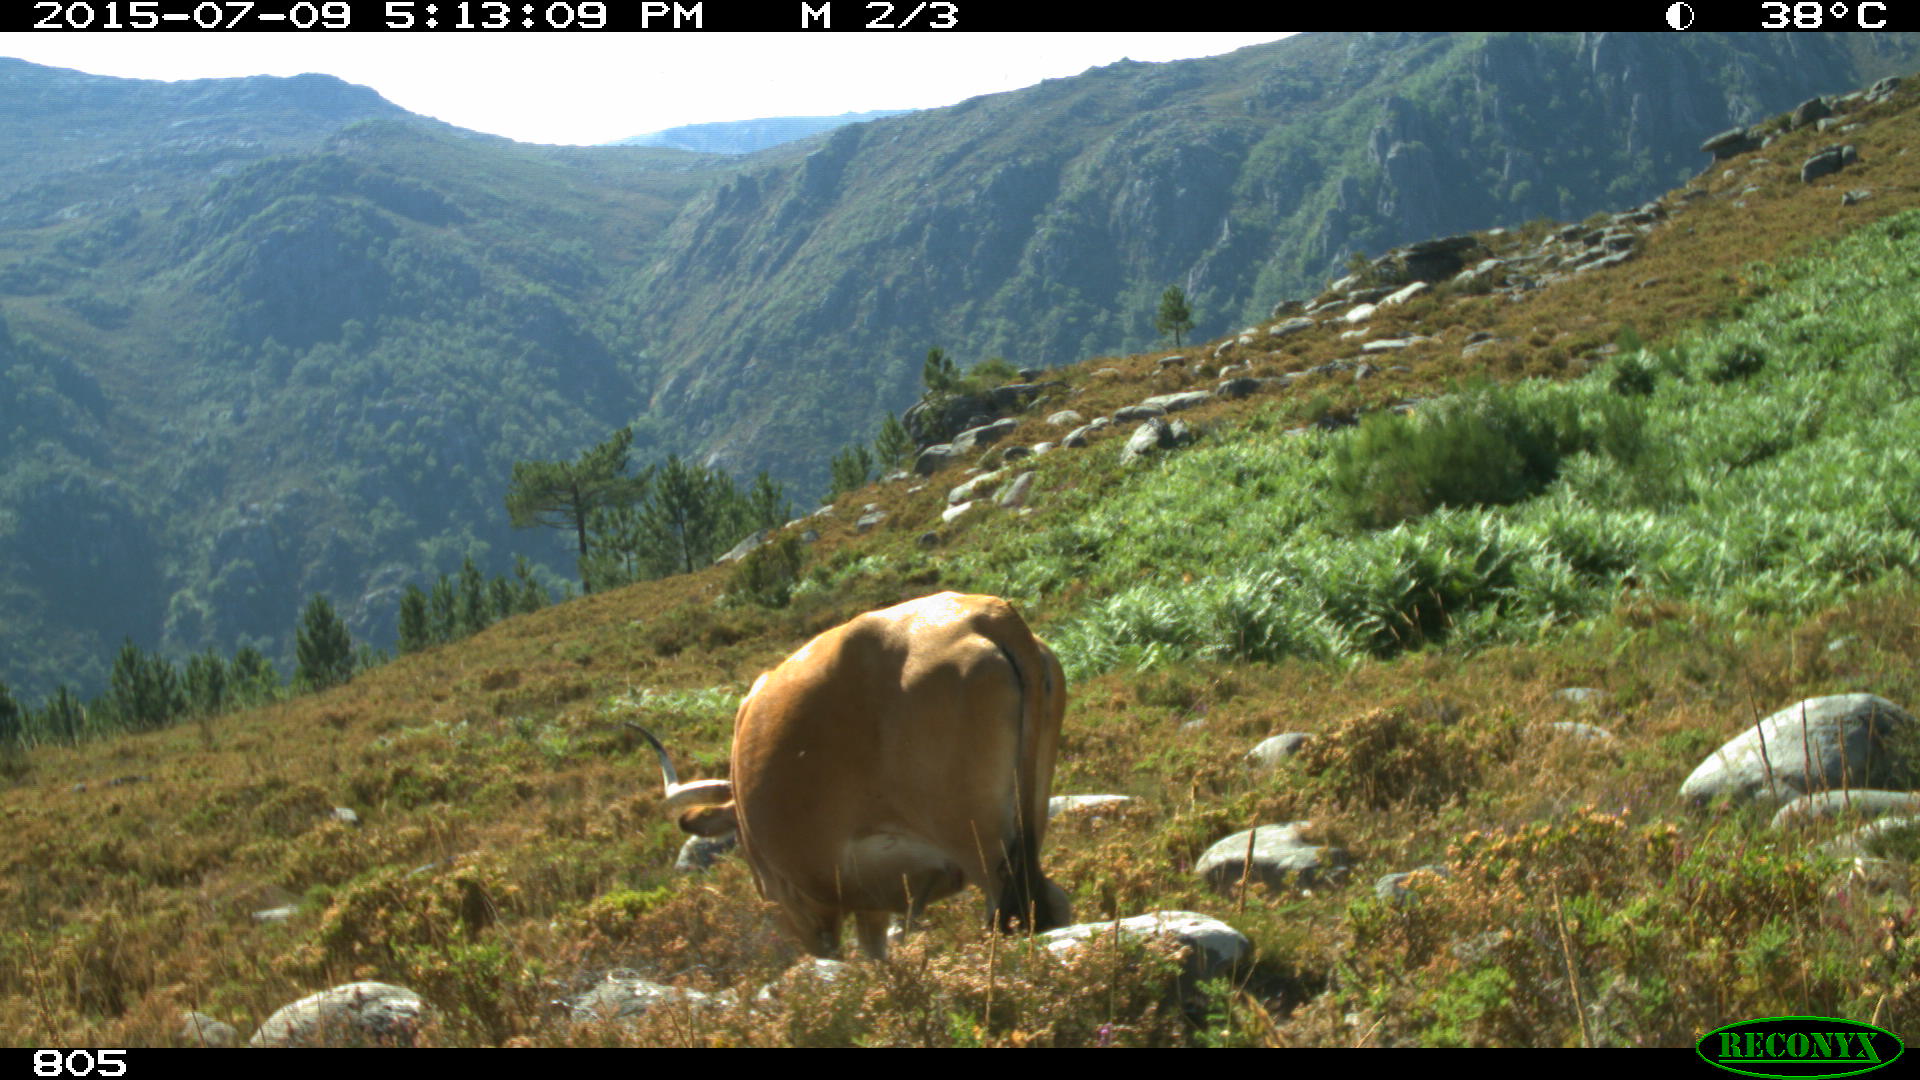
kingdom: Animalia
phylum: Chordata
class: Mammalia
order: Artiodactyla
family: Bovidae
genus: Bos
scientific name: Bos taurus
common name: Domesticated cattle
